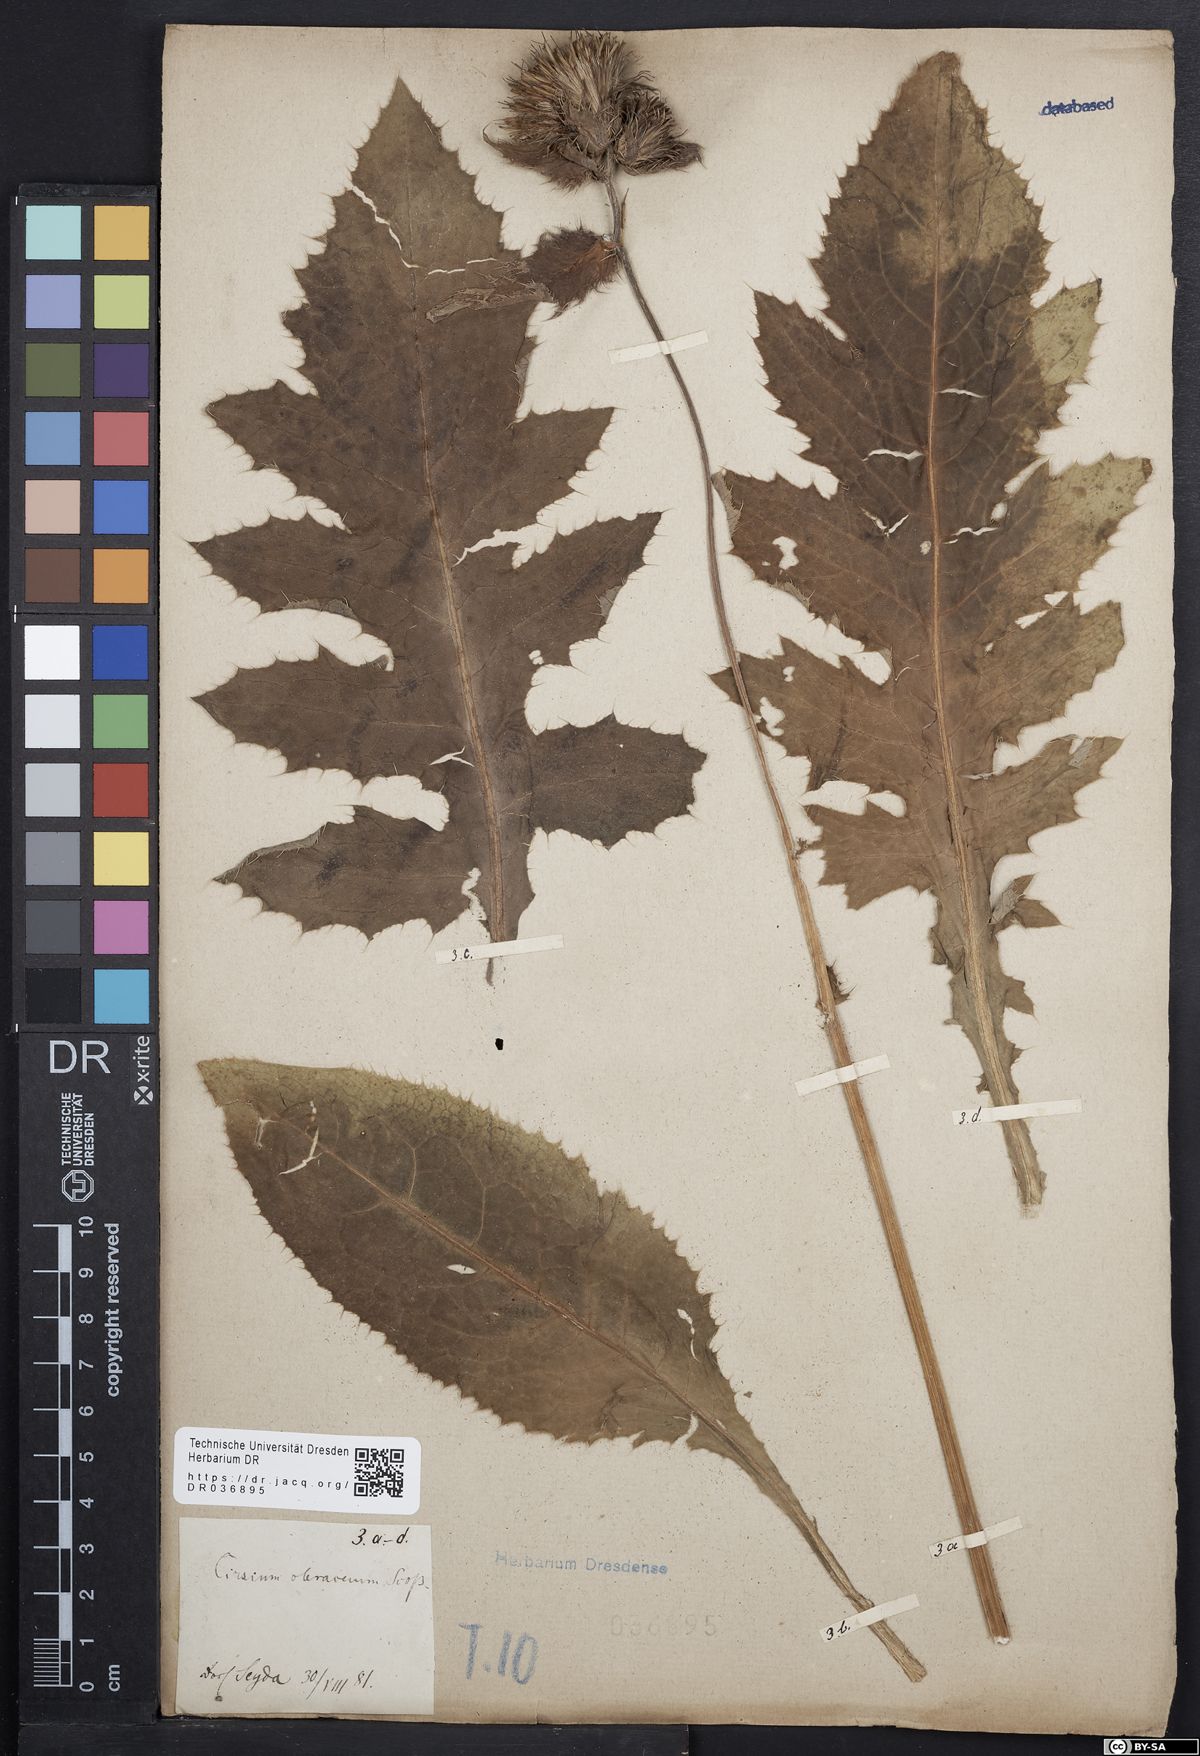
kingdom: Plantae
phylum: Tracheophyta
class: Magnoliopsida
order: Asterales
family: Asteraceae
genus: Cirsium
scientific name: Cirsium oleraceum
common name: Cabbage thistle
